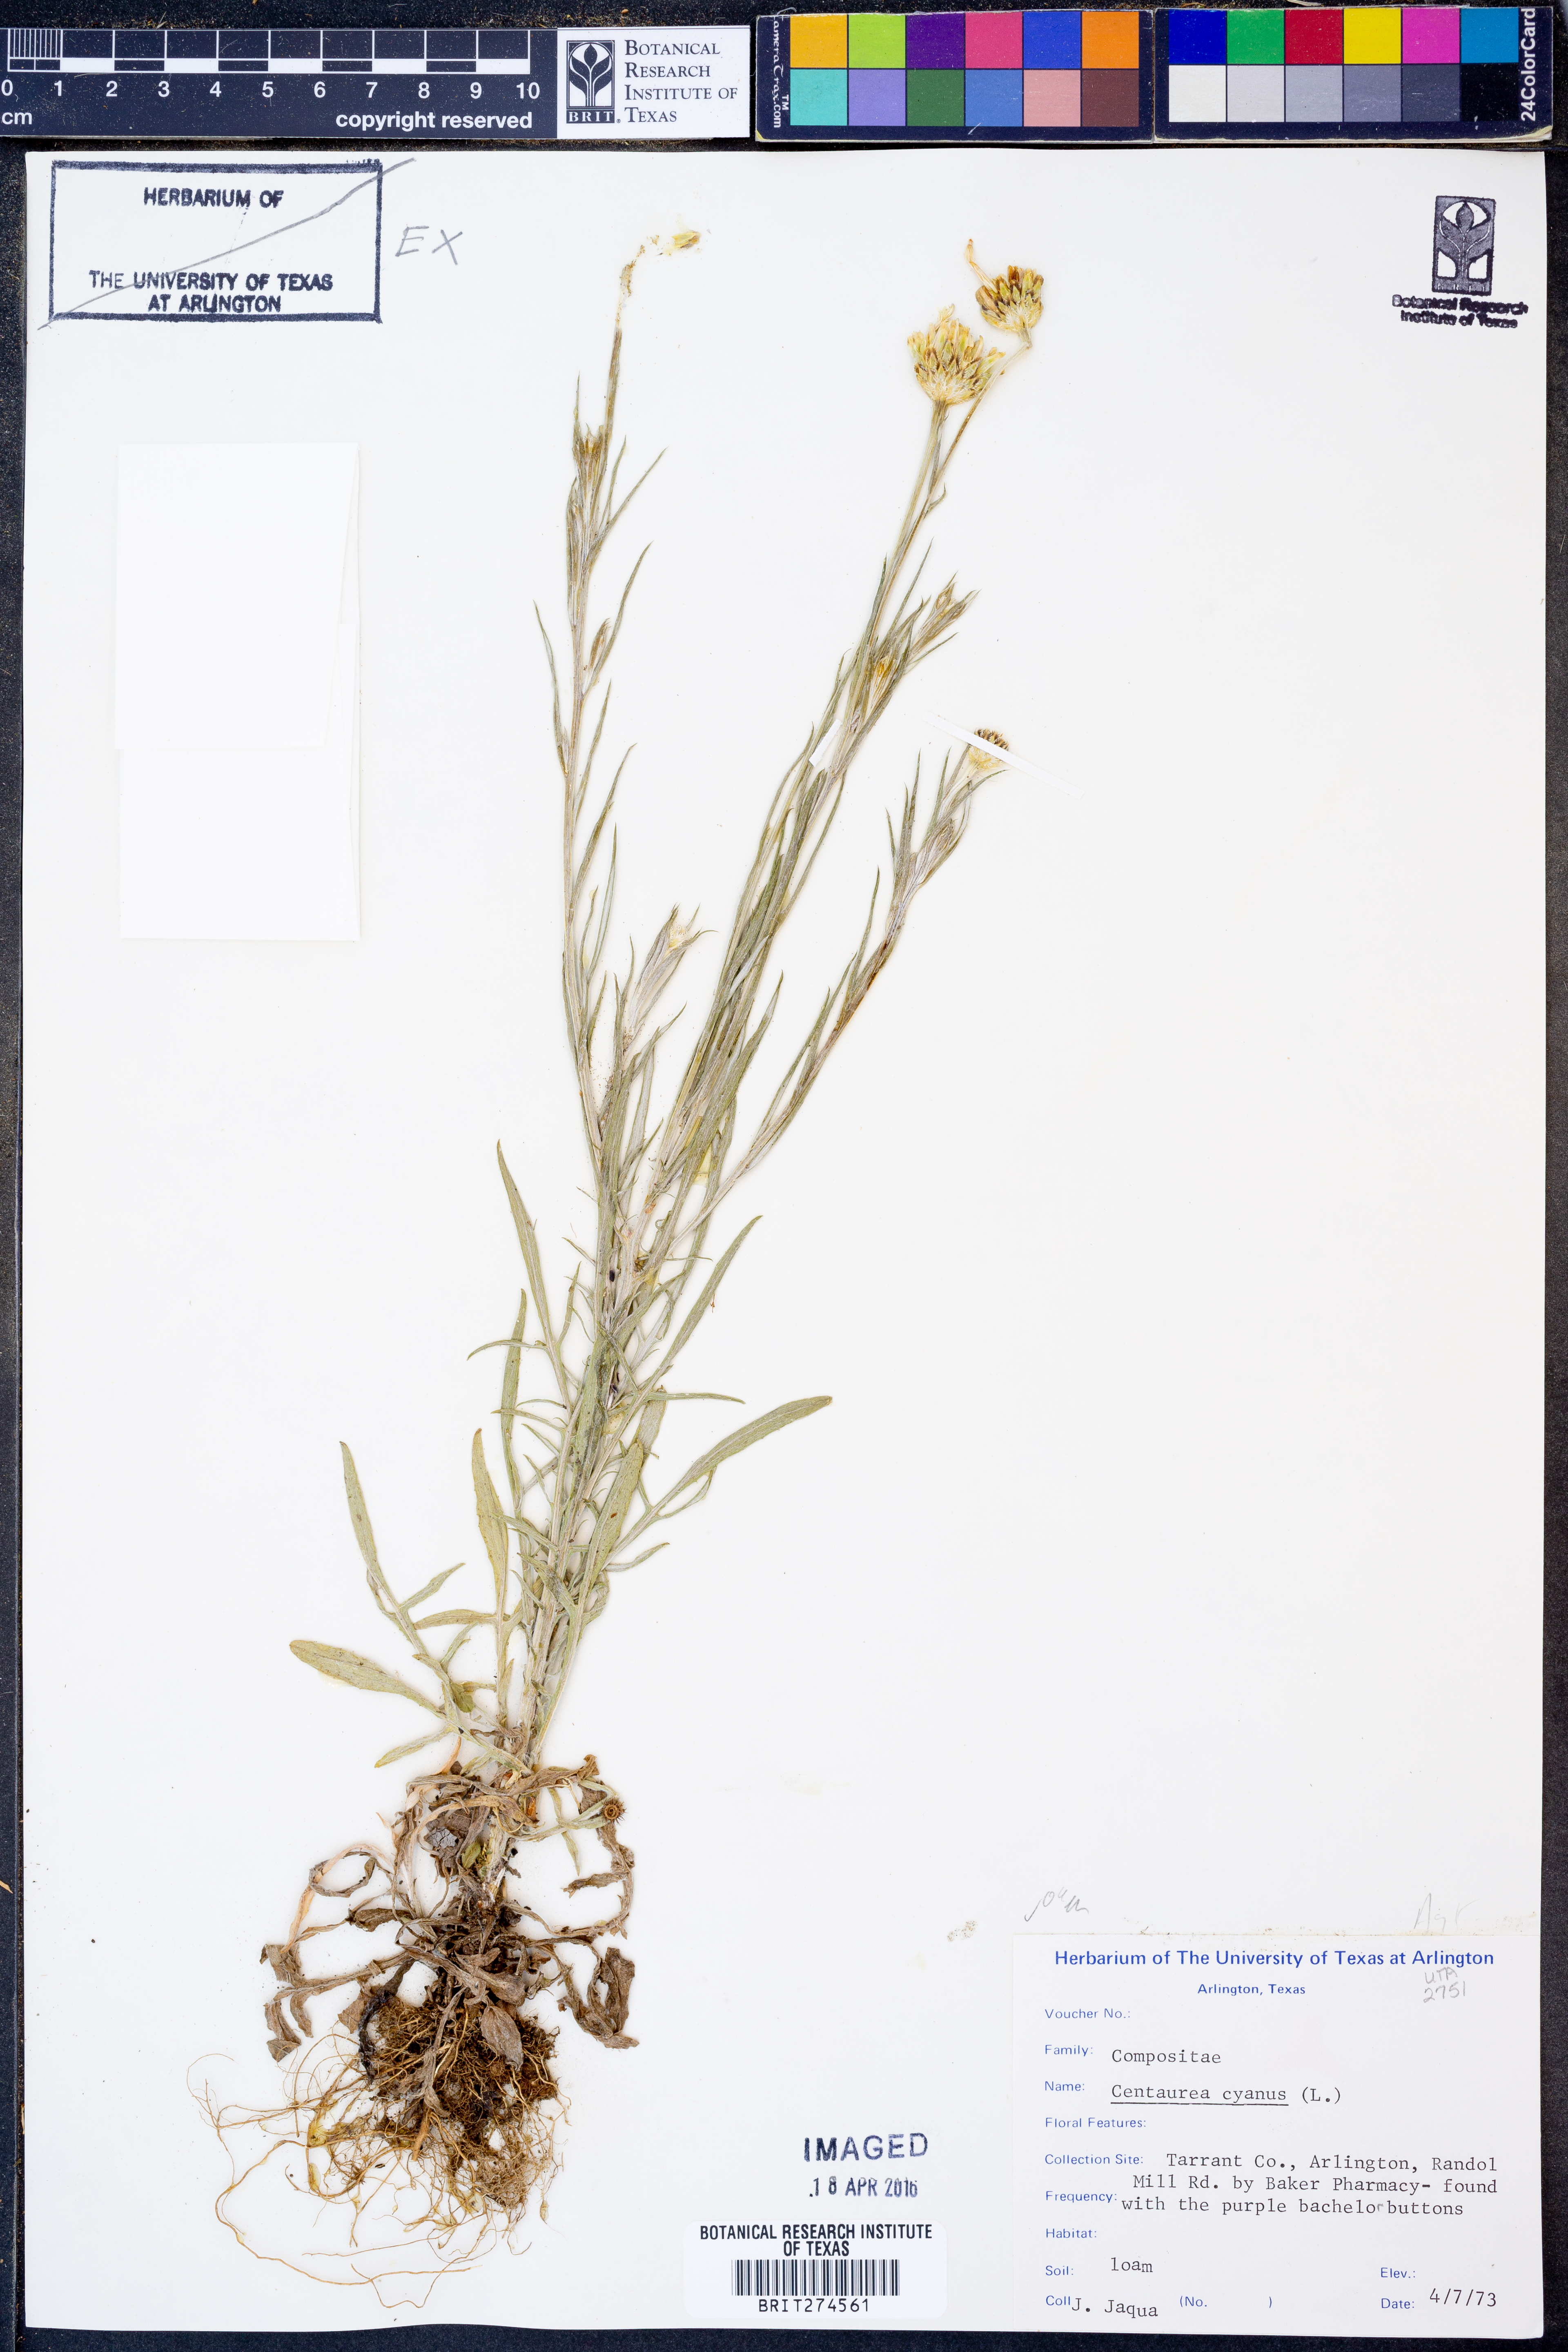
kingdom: Plantae
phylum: Tracheophyta
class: Magnoliopsida
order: Asterales
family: Asteraceae
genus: Centaurea
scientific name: Centaurea cyanus
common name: Cornflower
